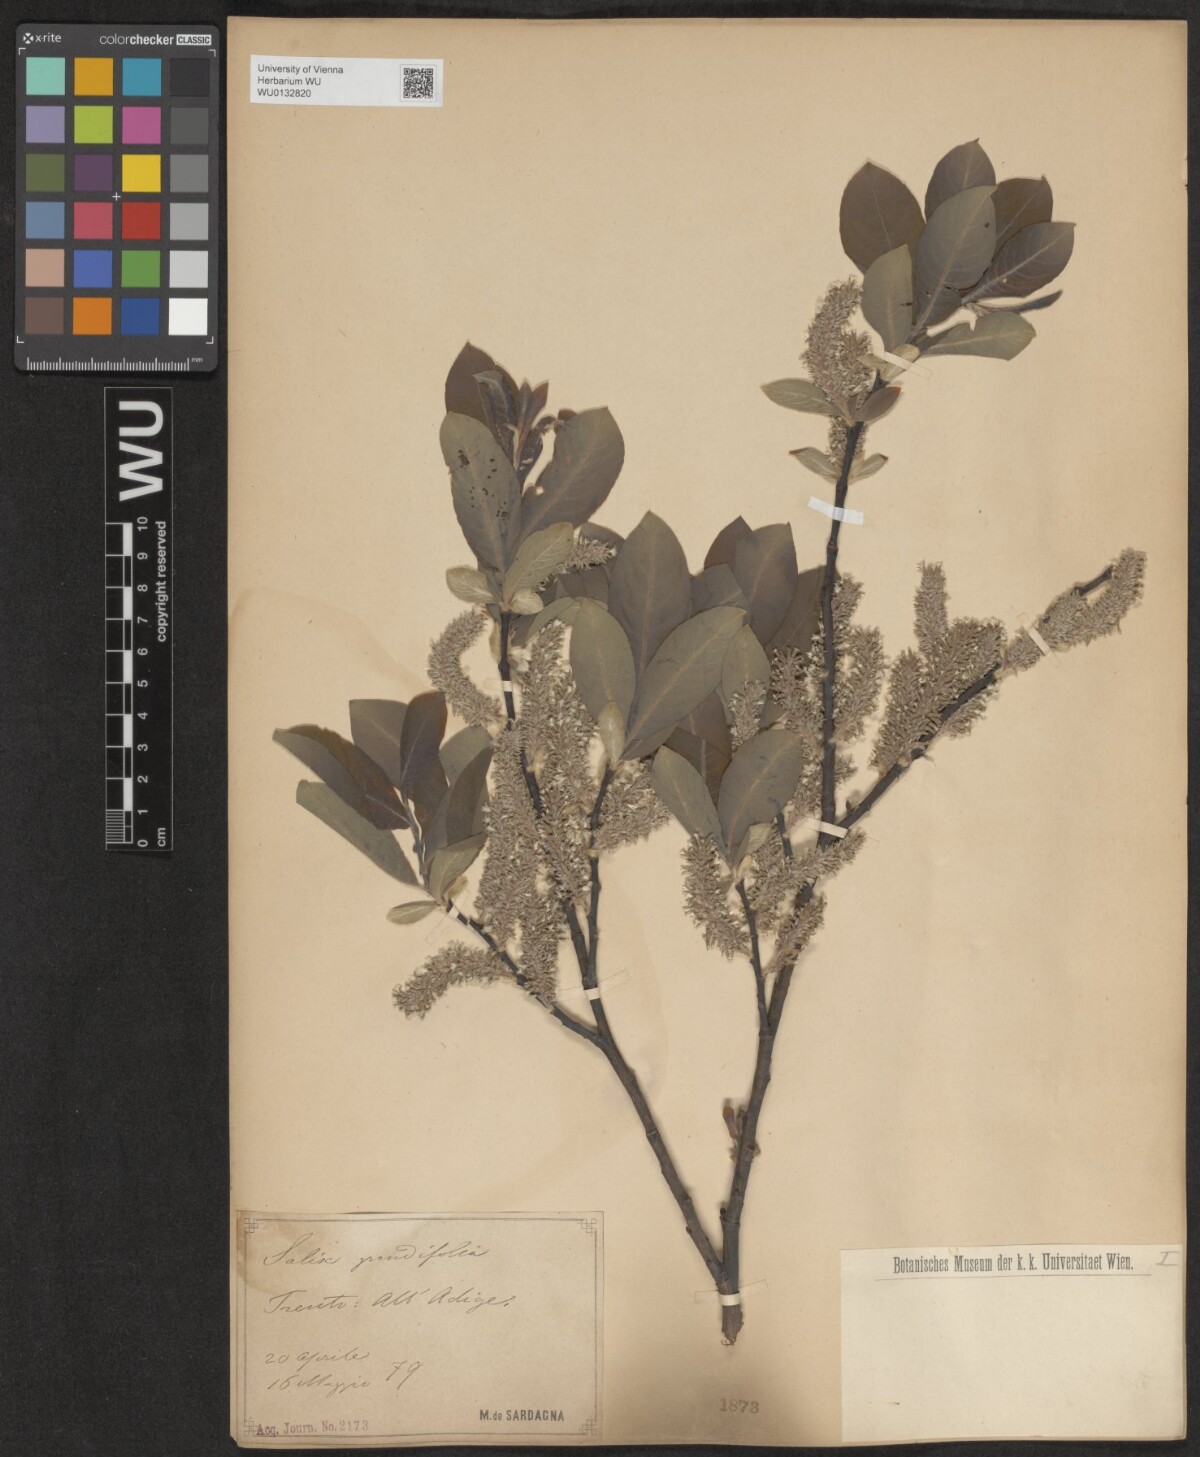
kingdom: Plantae
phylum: Tracheophyta
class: Magnoliopsida
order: Malpighiales
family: Salicaceae
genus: Salix
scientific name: Salix appendiculata
